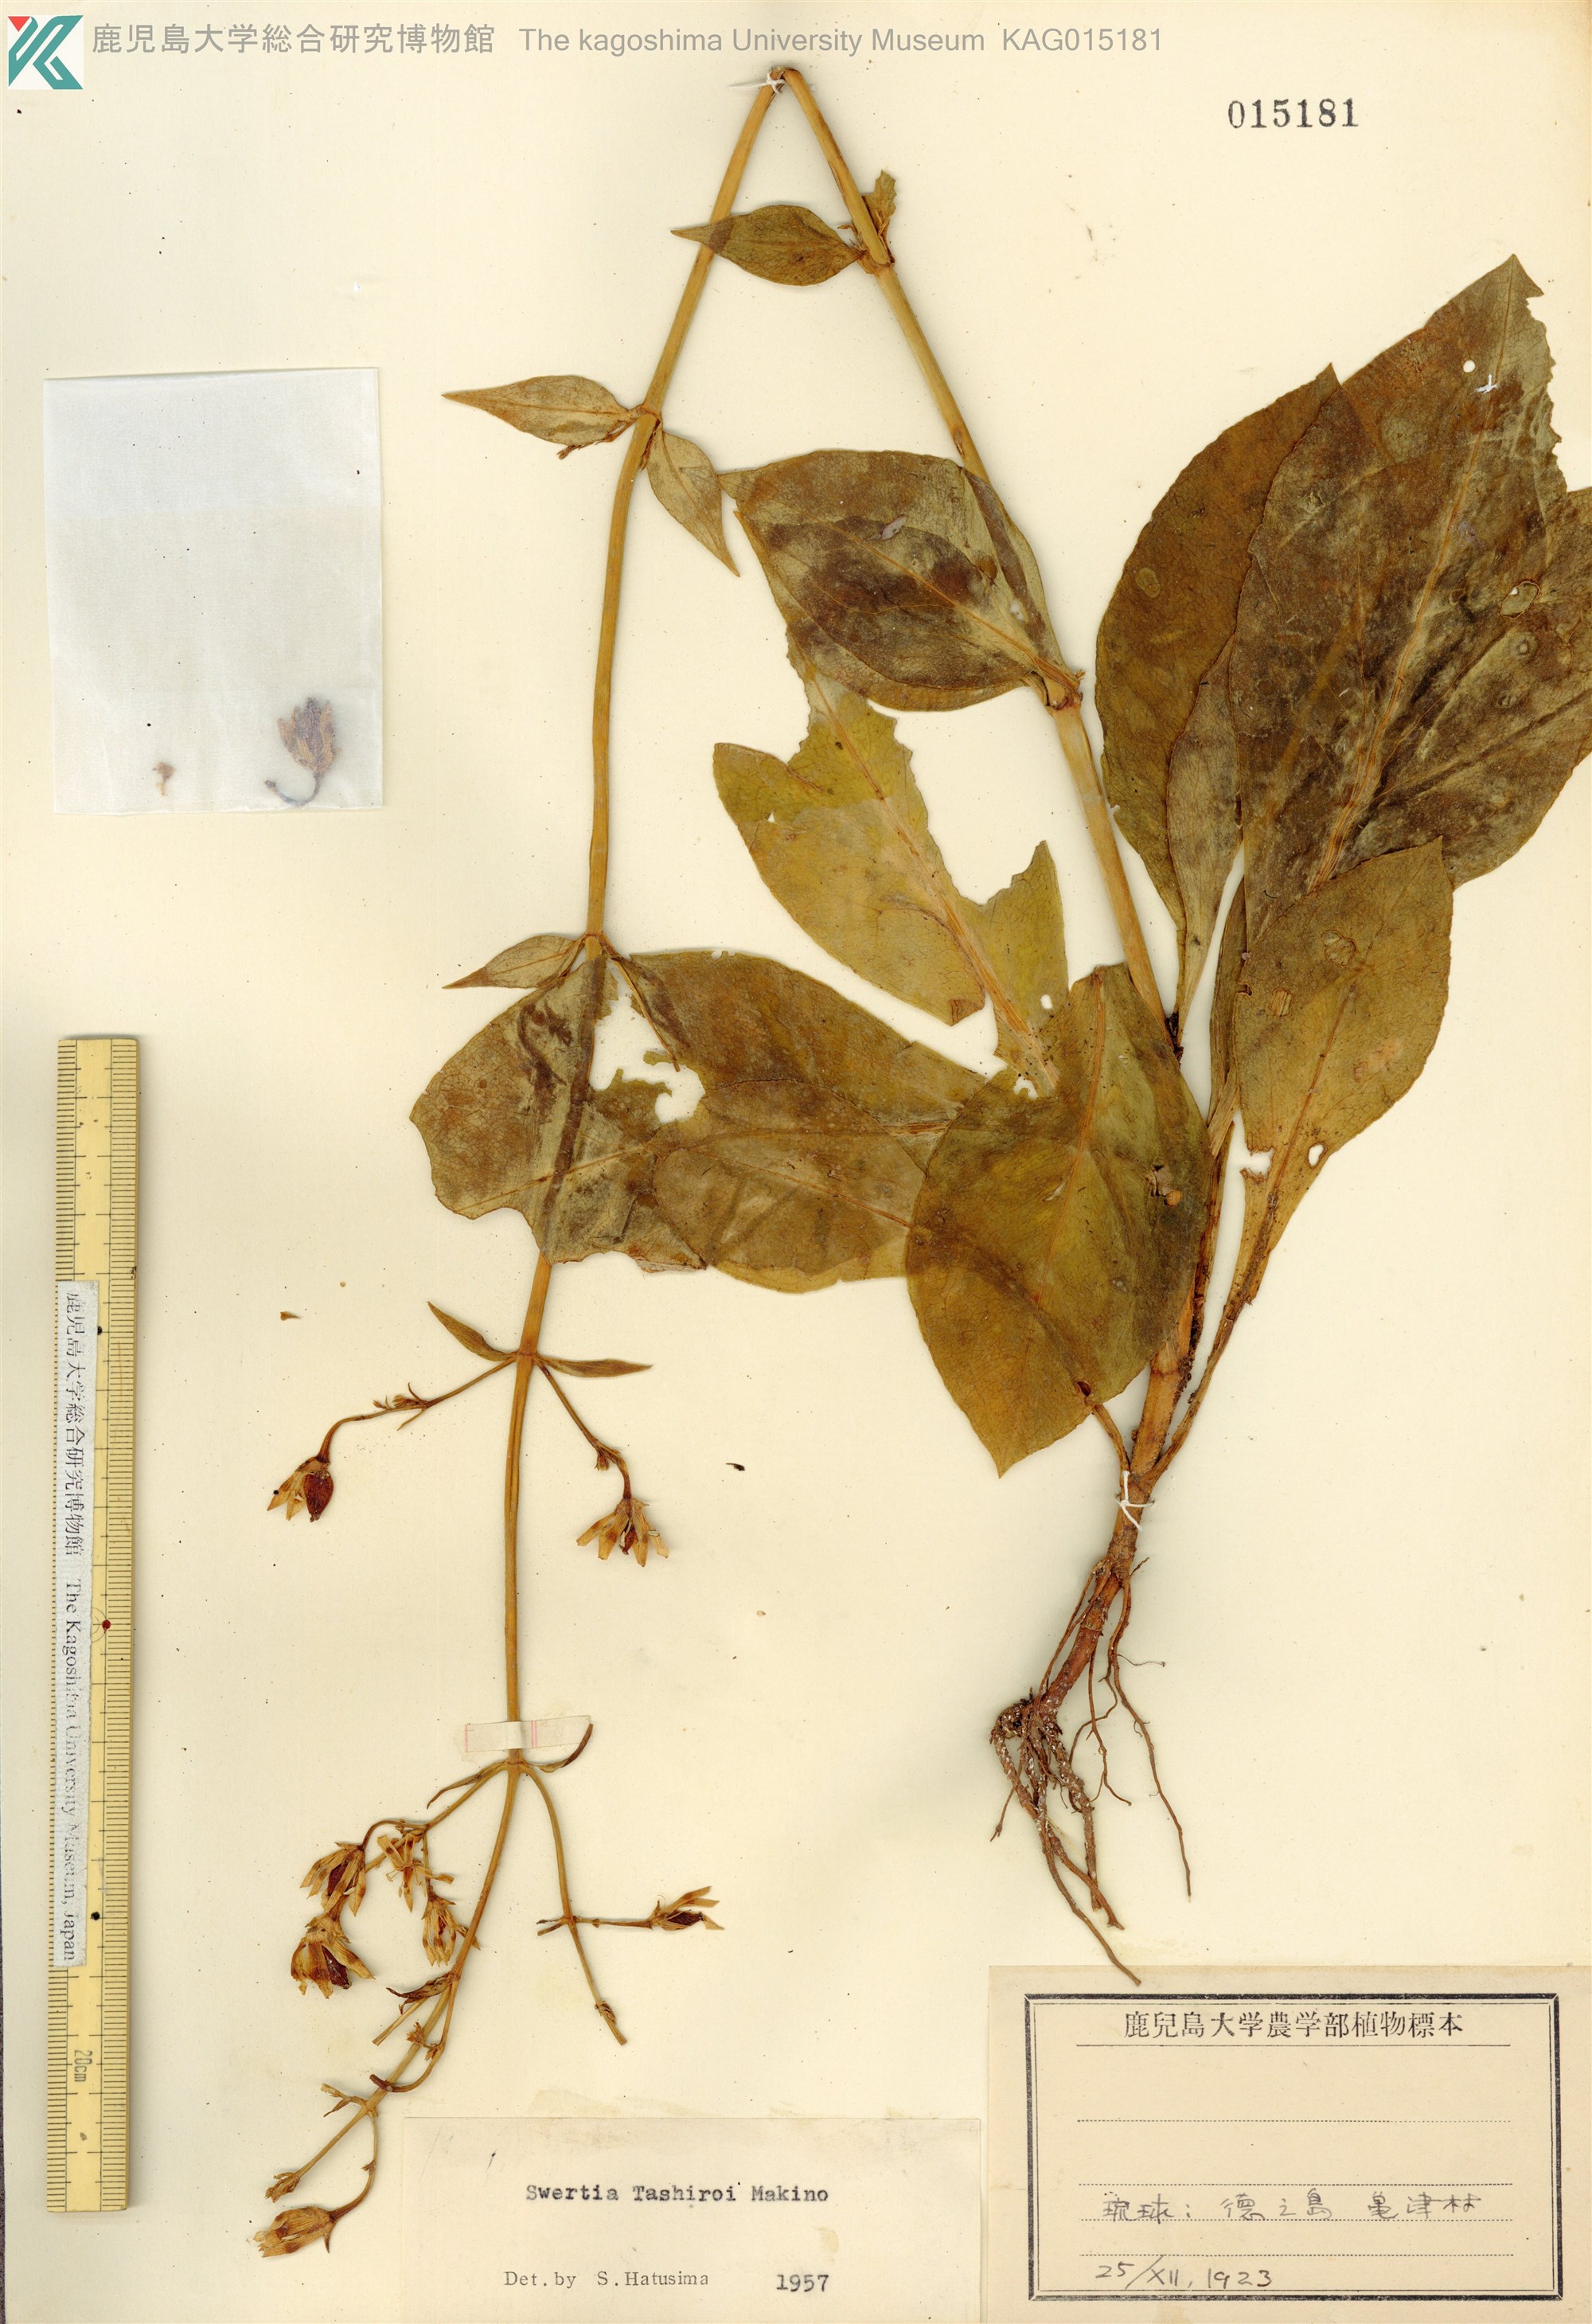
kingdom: Plantae
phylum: Tracheophyta
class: Magnoliopsida
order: Gentianales
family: Gentianaceae
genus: Swertia
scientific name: Swertia tashiroi
